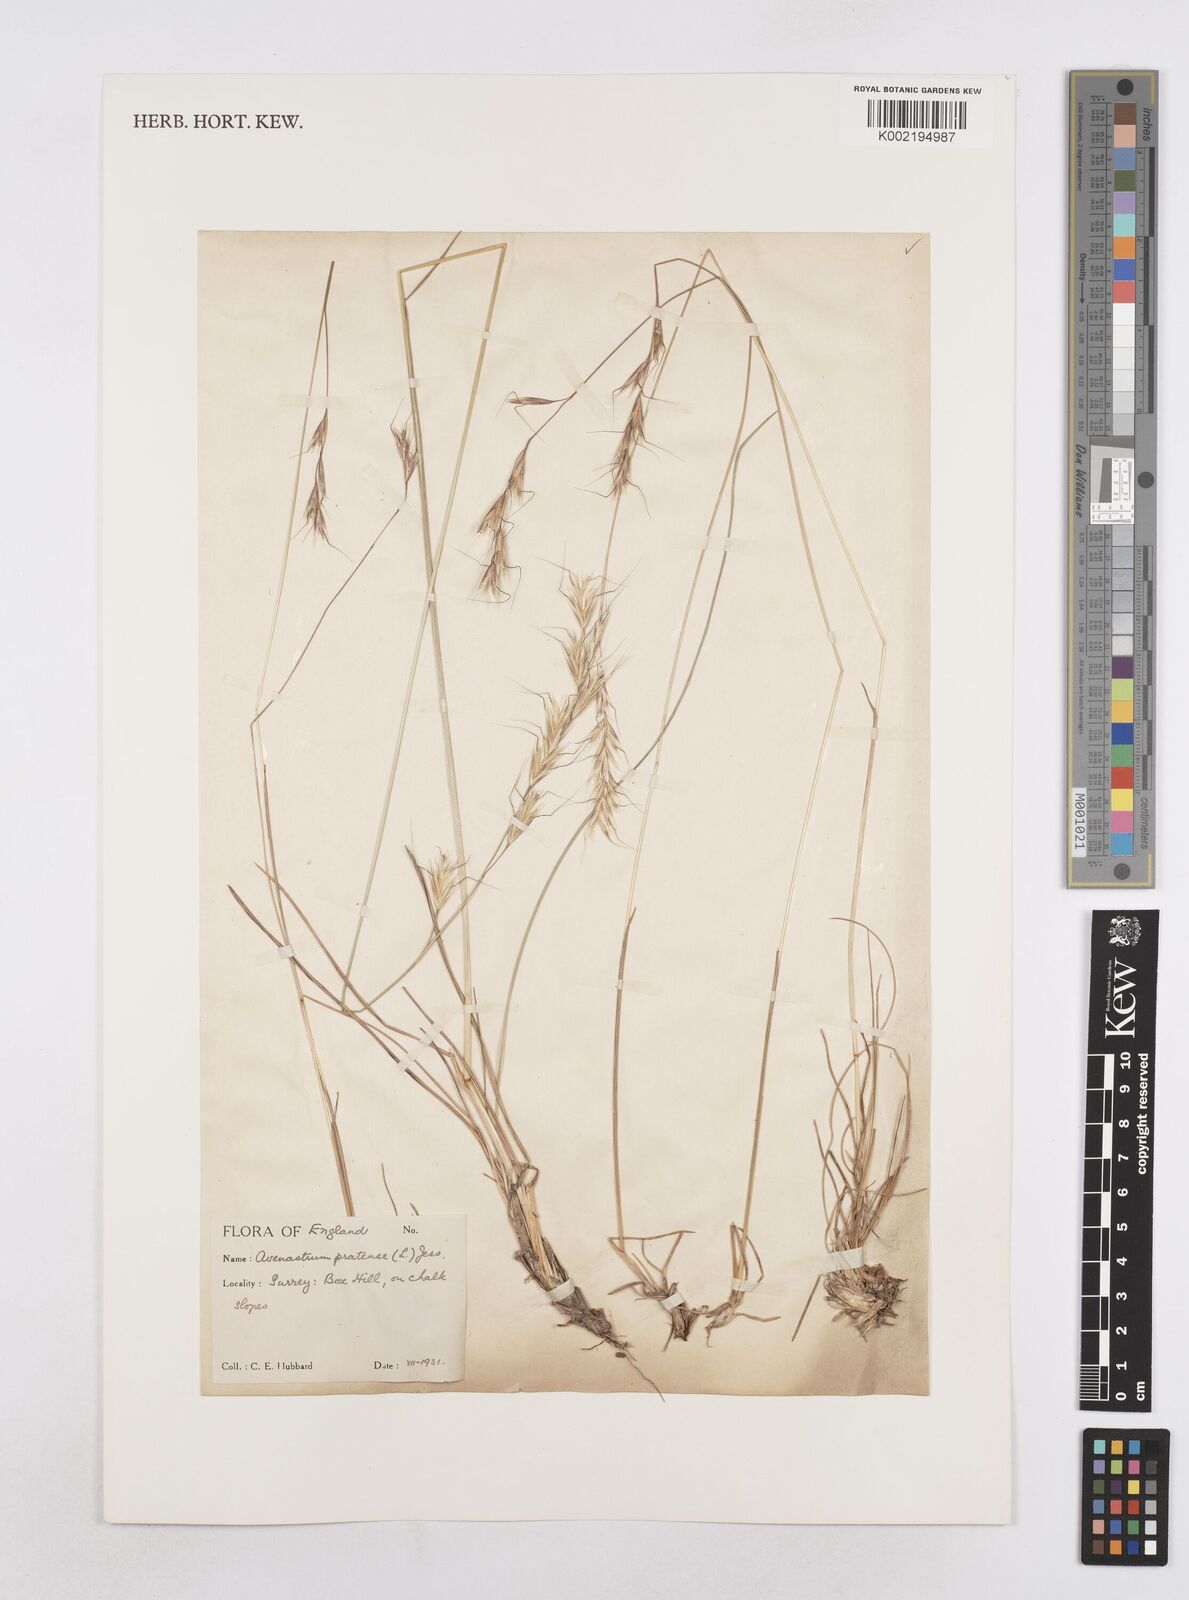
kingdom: Plantae
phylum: Tracheophyta
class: Liliopsida
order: Poales
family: Poaceae
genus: Helictochloa
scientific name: Helictochloa pratensis
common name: Meadow oat grass
